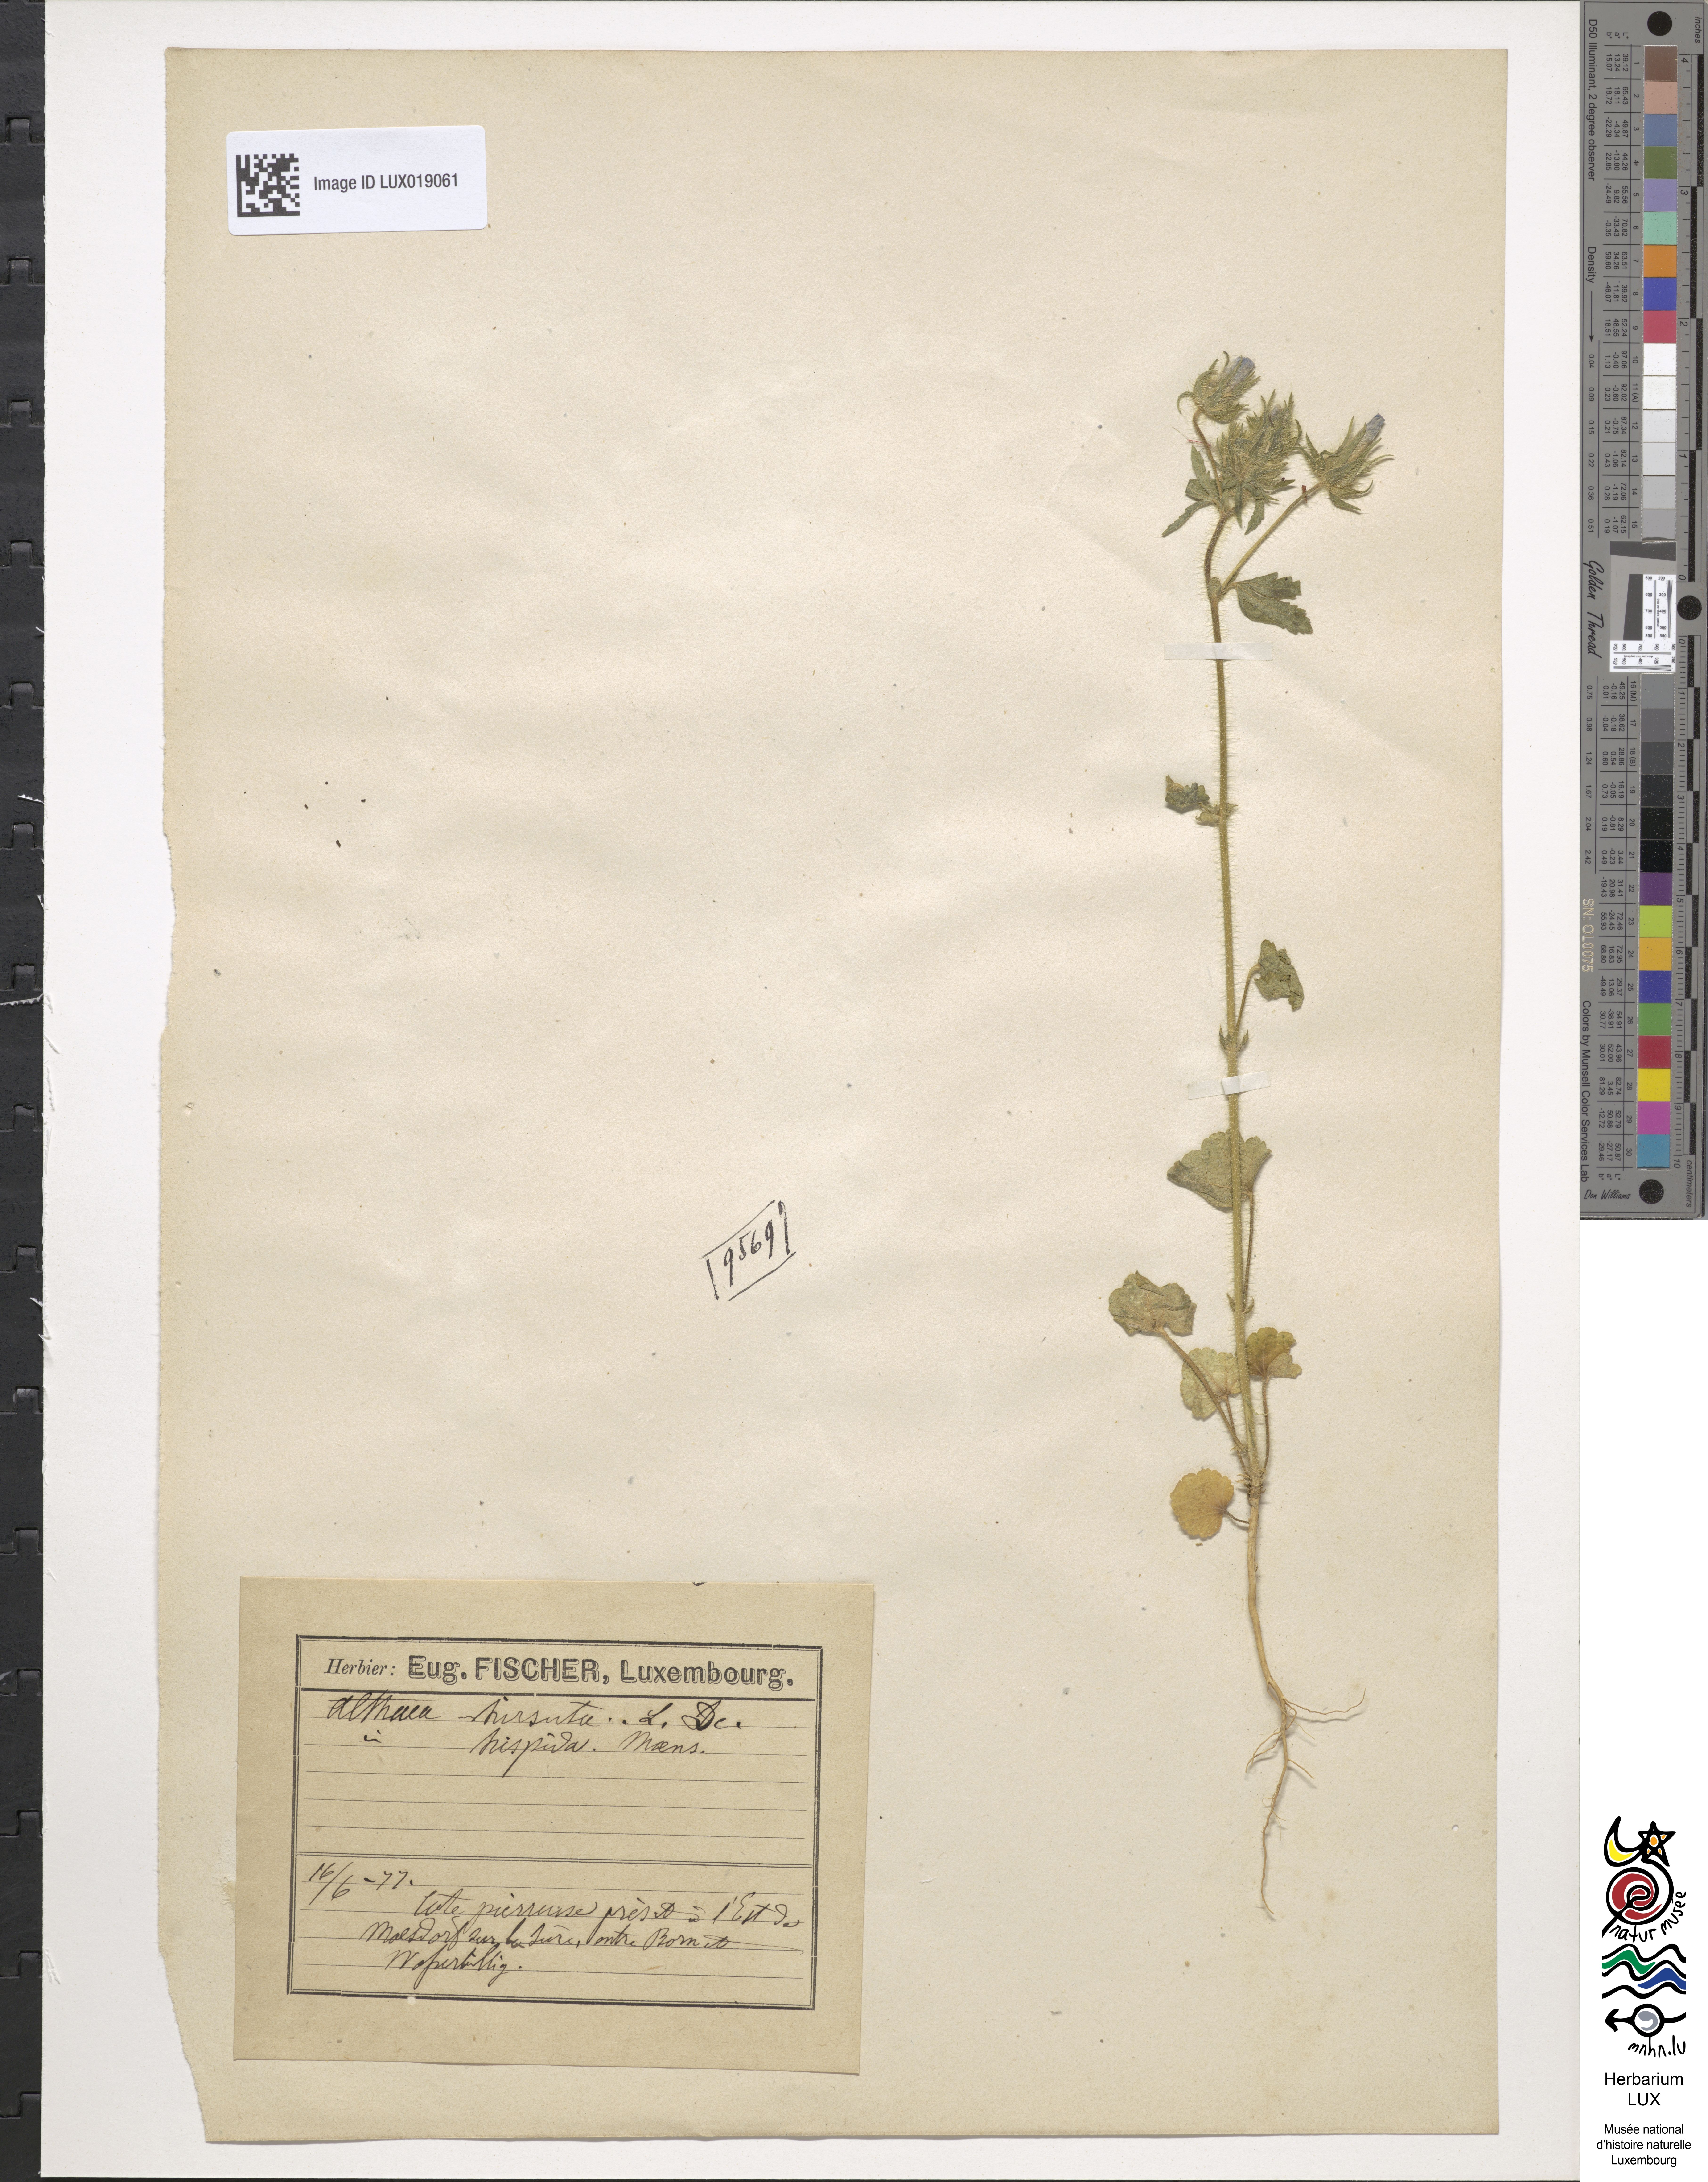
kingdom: Plantae
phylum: Tracheophyta
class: Magnoliopsida
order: Malvales
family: Malvaceae
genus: Althaea
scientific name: Althaea hirsuta
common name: Rough marsh-mallow
